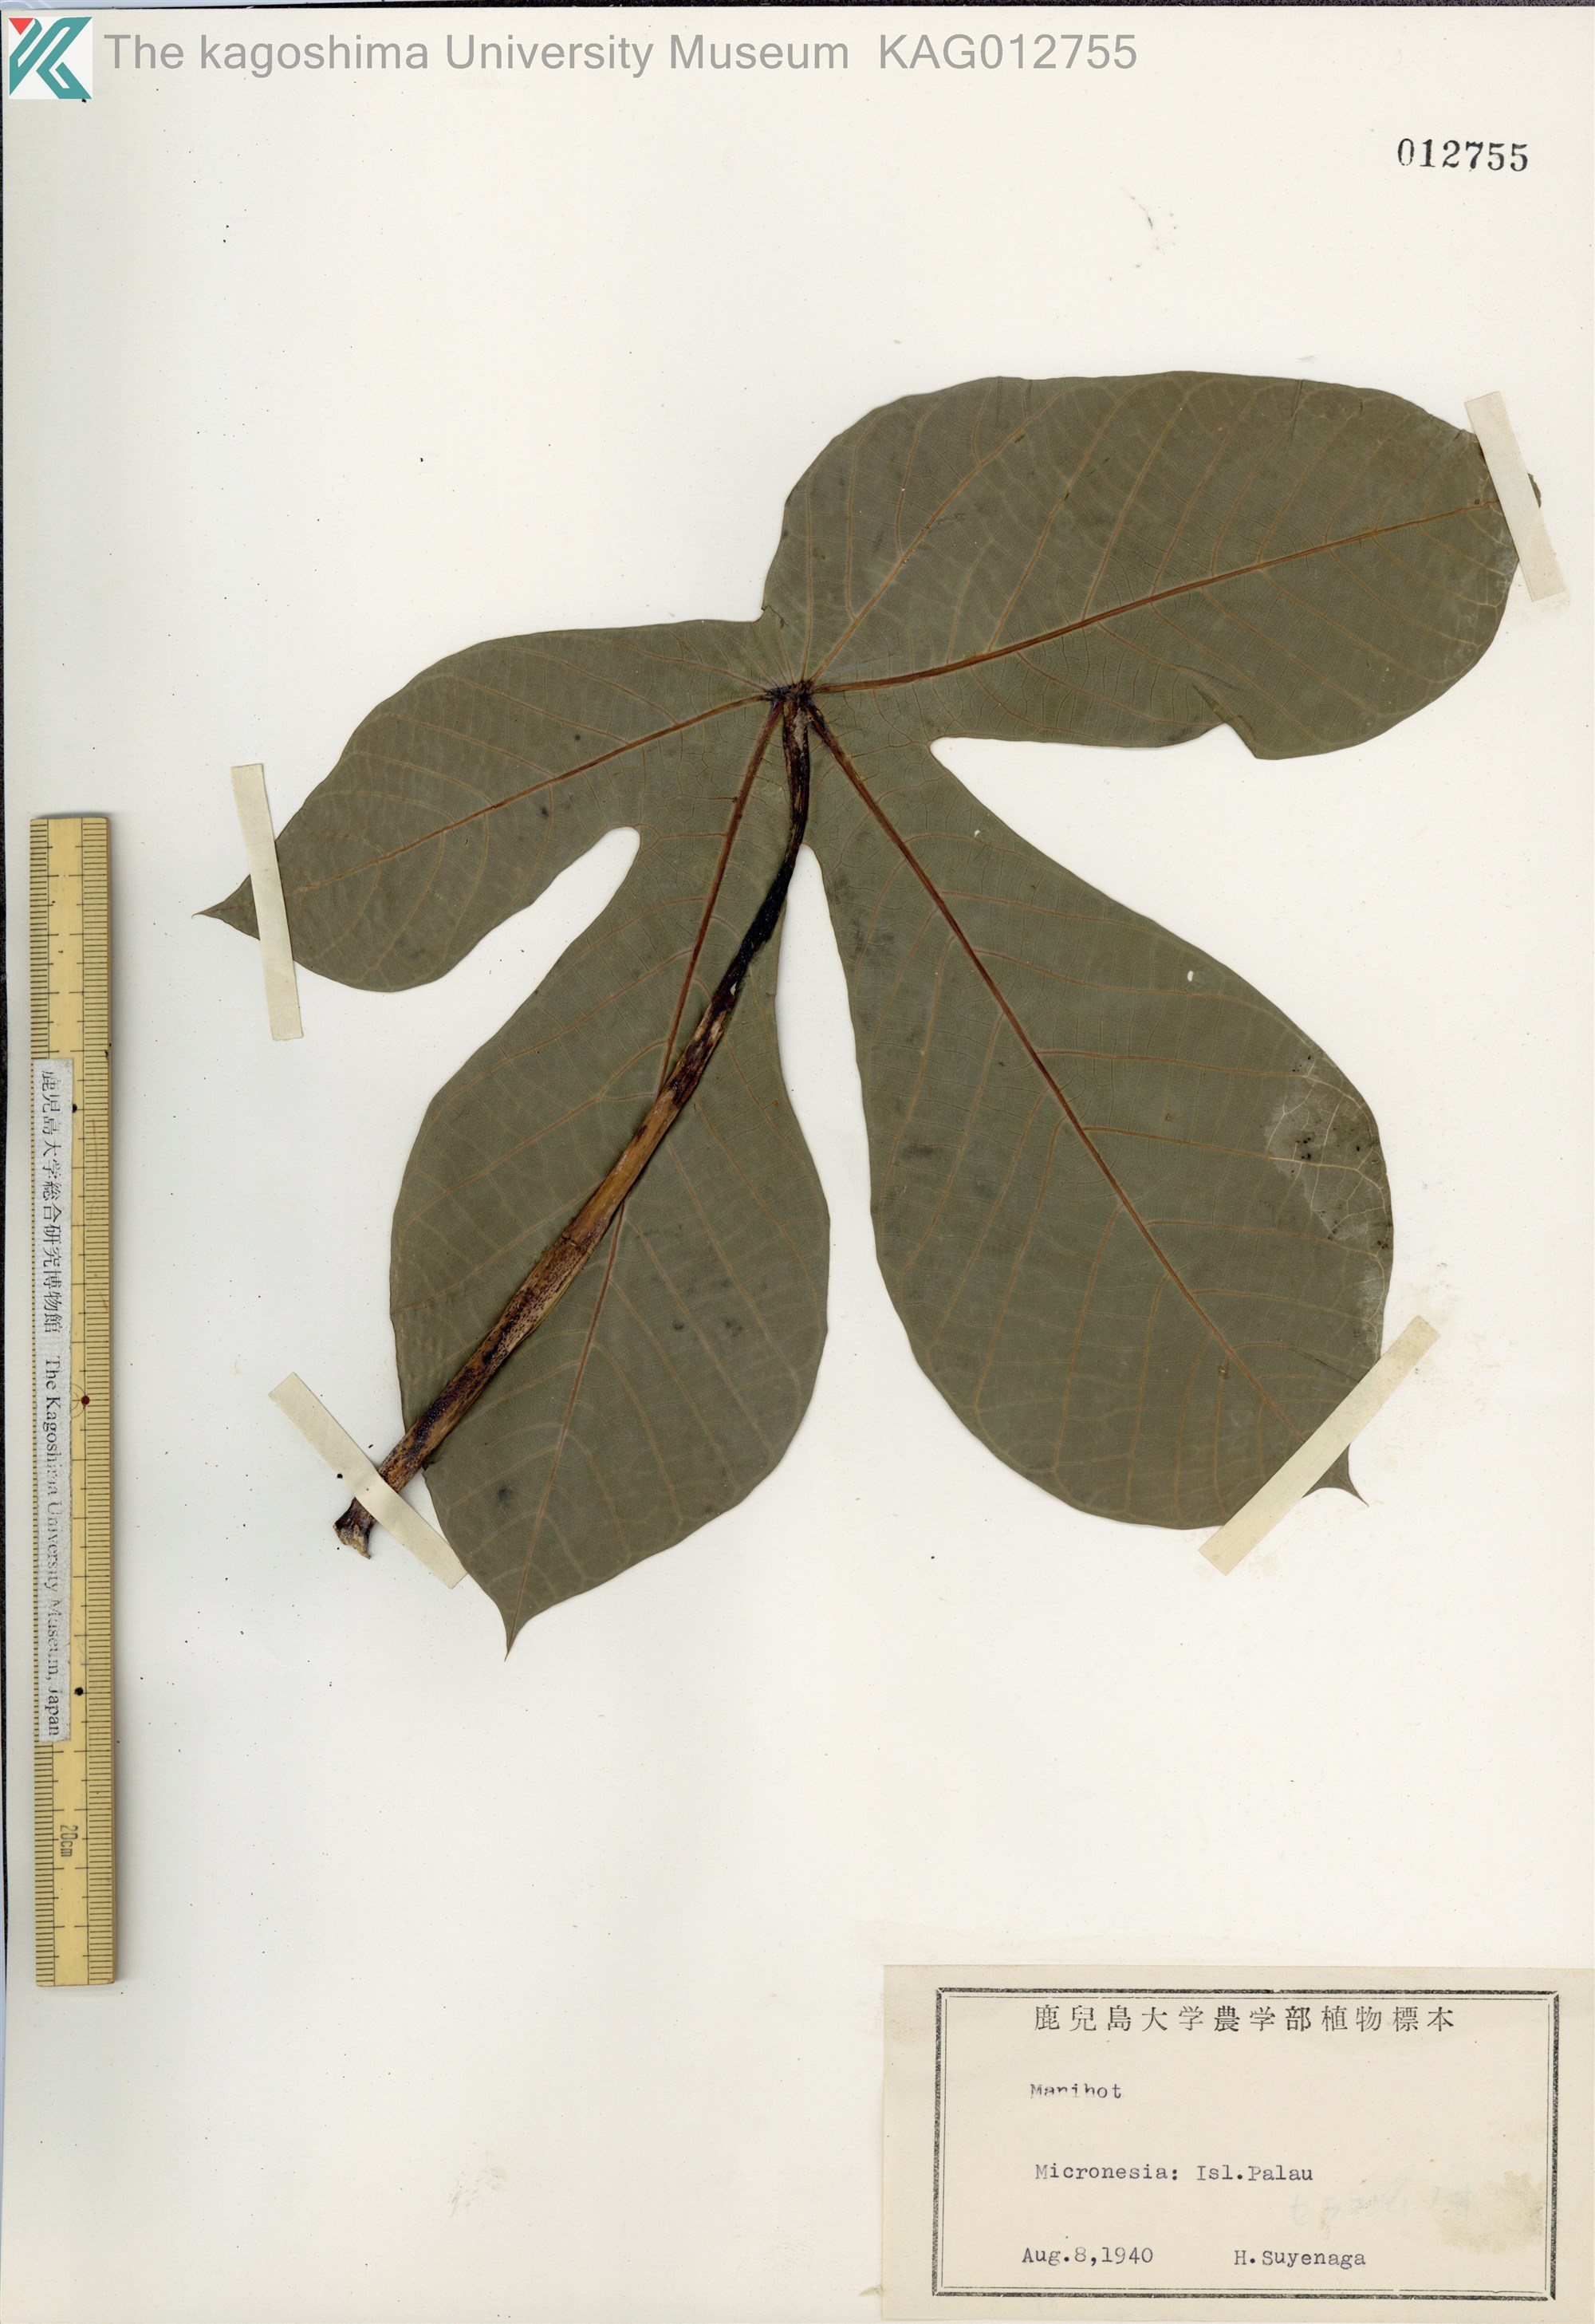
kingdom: Plantae
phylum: Tracheophyta
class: Magnoliopsida
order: Malpighiales
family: Euphorbiaceae
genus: Manihot
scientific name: Manihot
